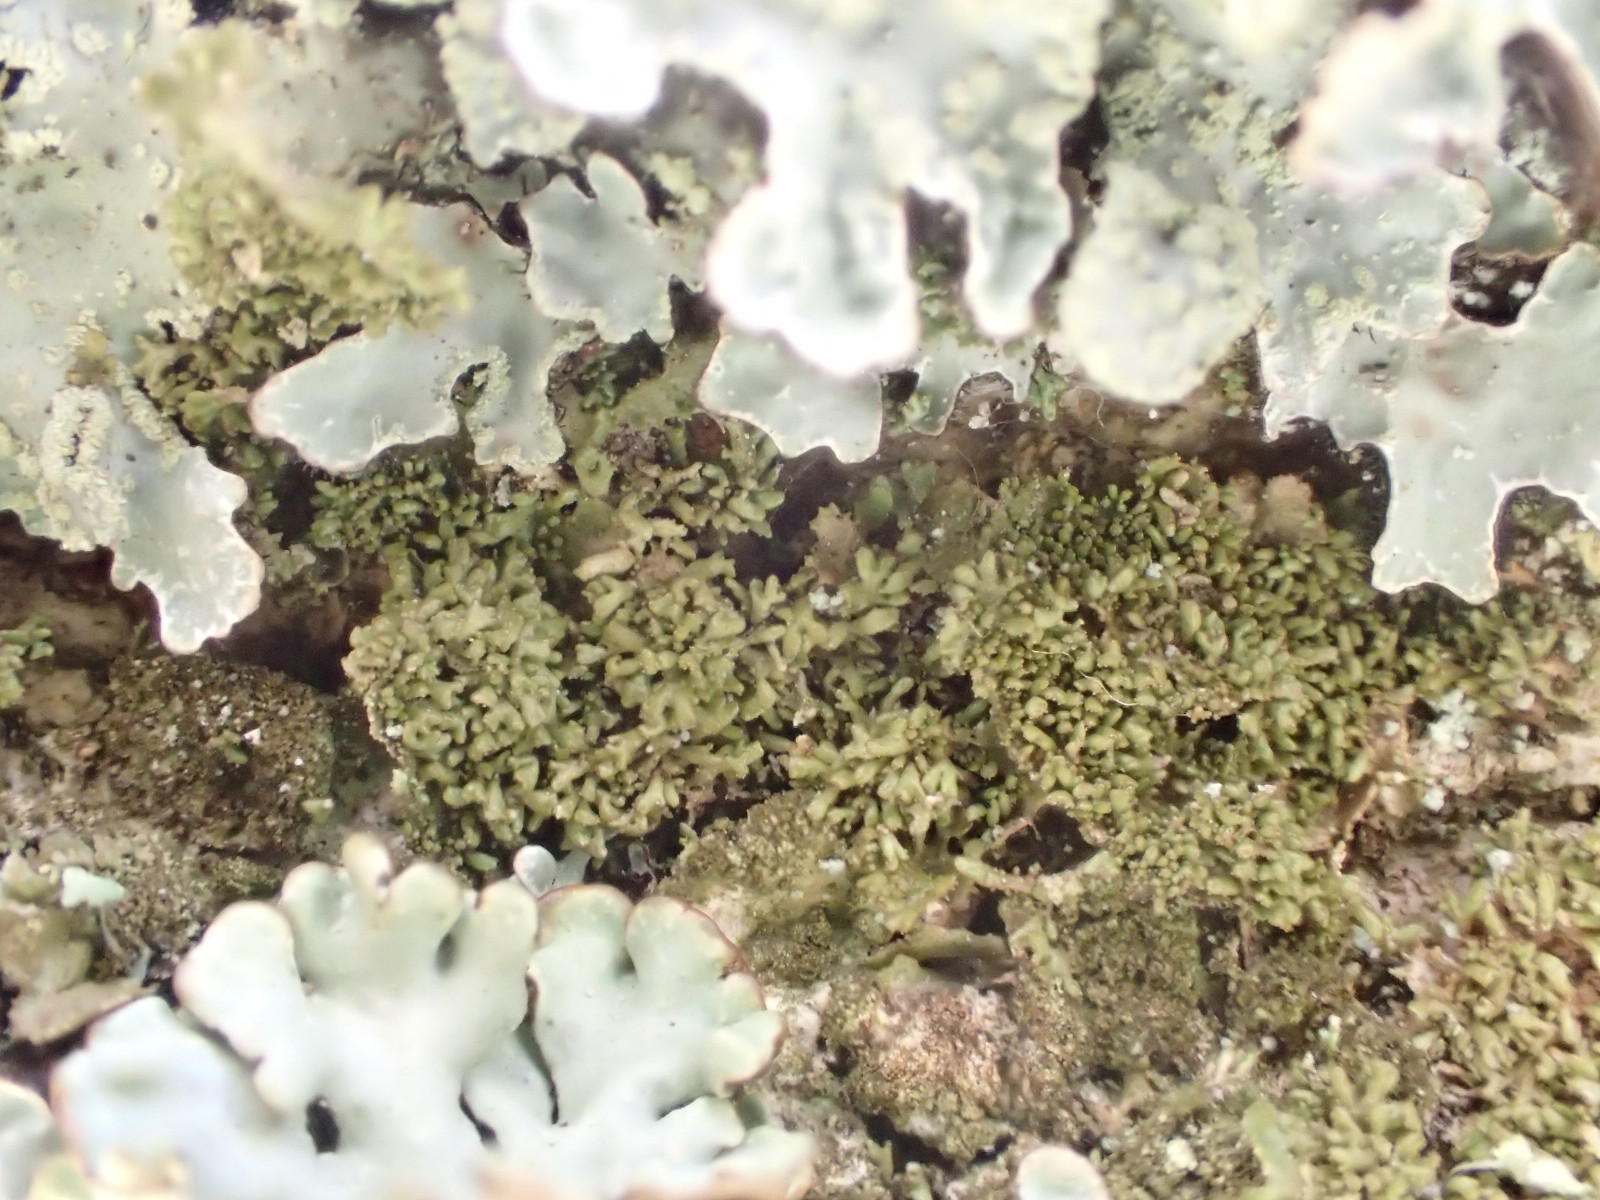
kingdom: Fungi
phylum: Ascomycota
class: Lecanoromycetes
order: Lecanorales
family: Parmeliaceae
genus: Melanohalea
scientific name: Melanohalea exasperatula
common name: kølle-skållav
